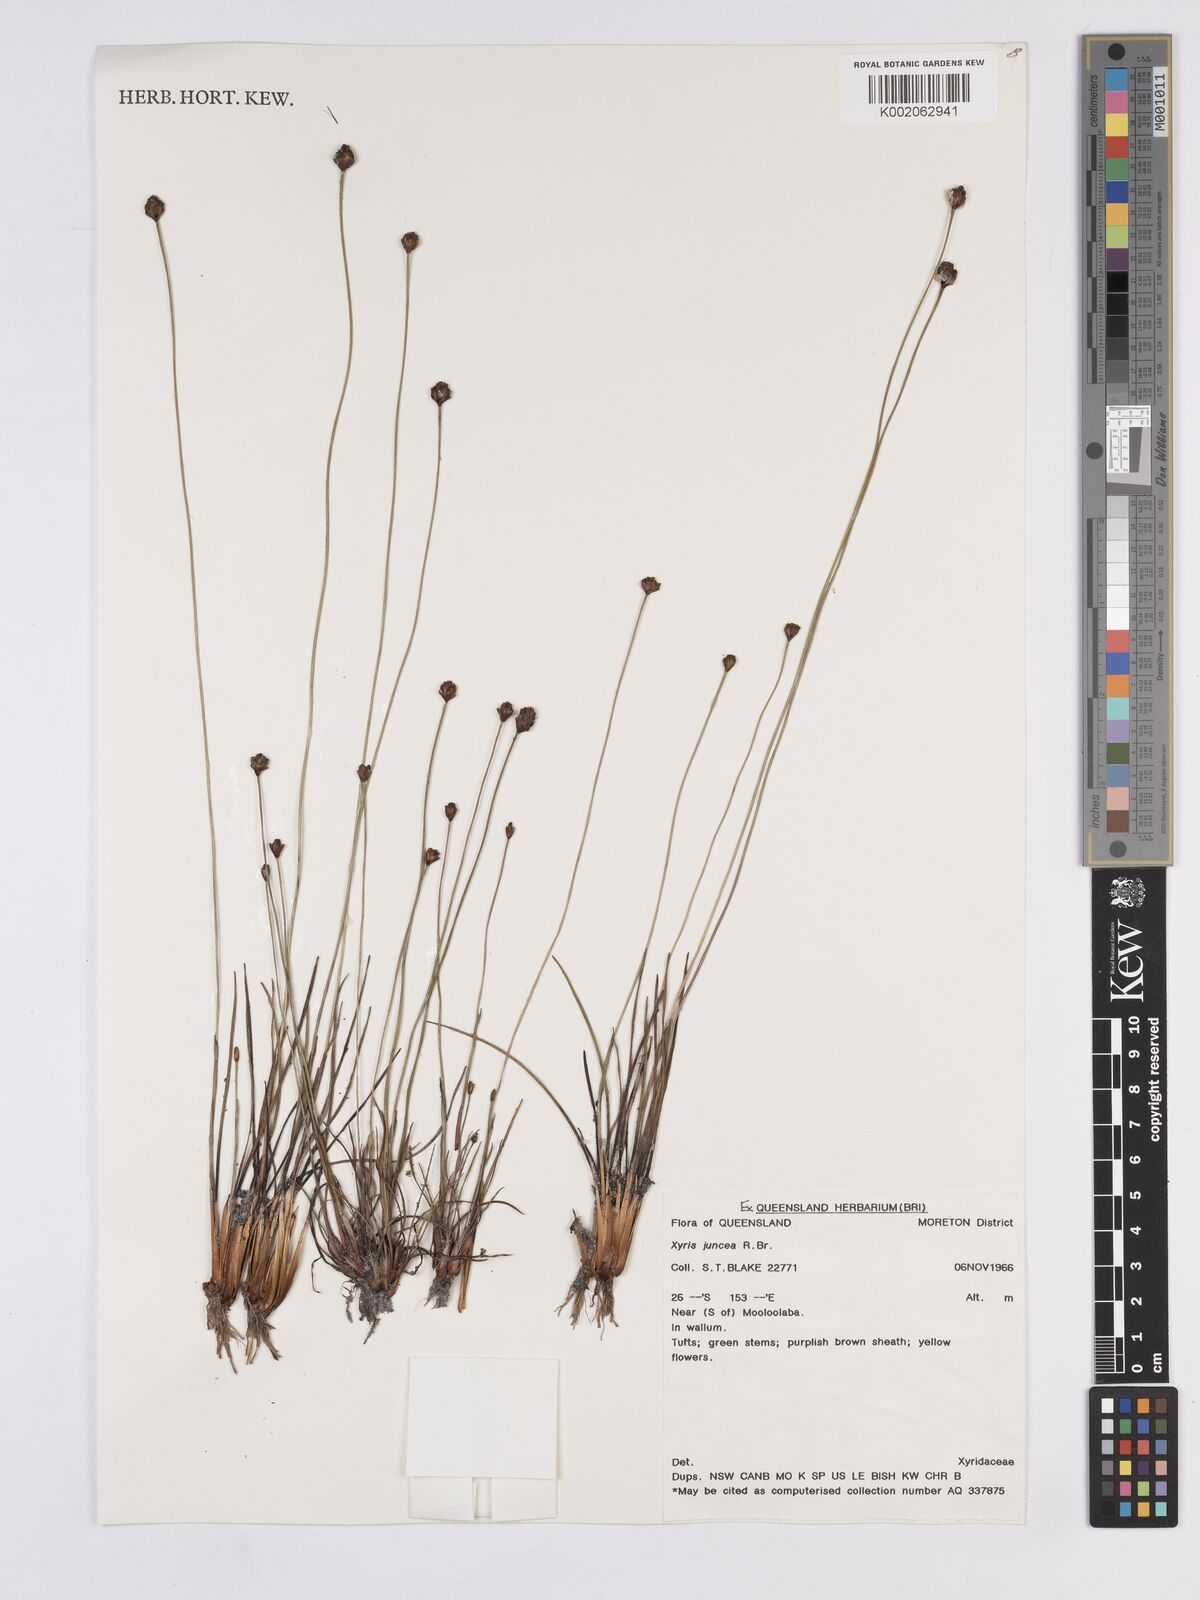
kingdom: Plantae
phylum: Tracheophyta
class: Liliopsida
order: Poales
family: Xyridaceae
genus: Xyris
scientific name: Xyris juncea
